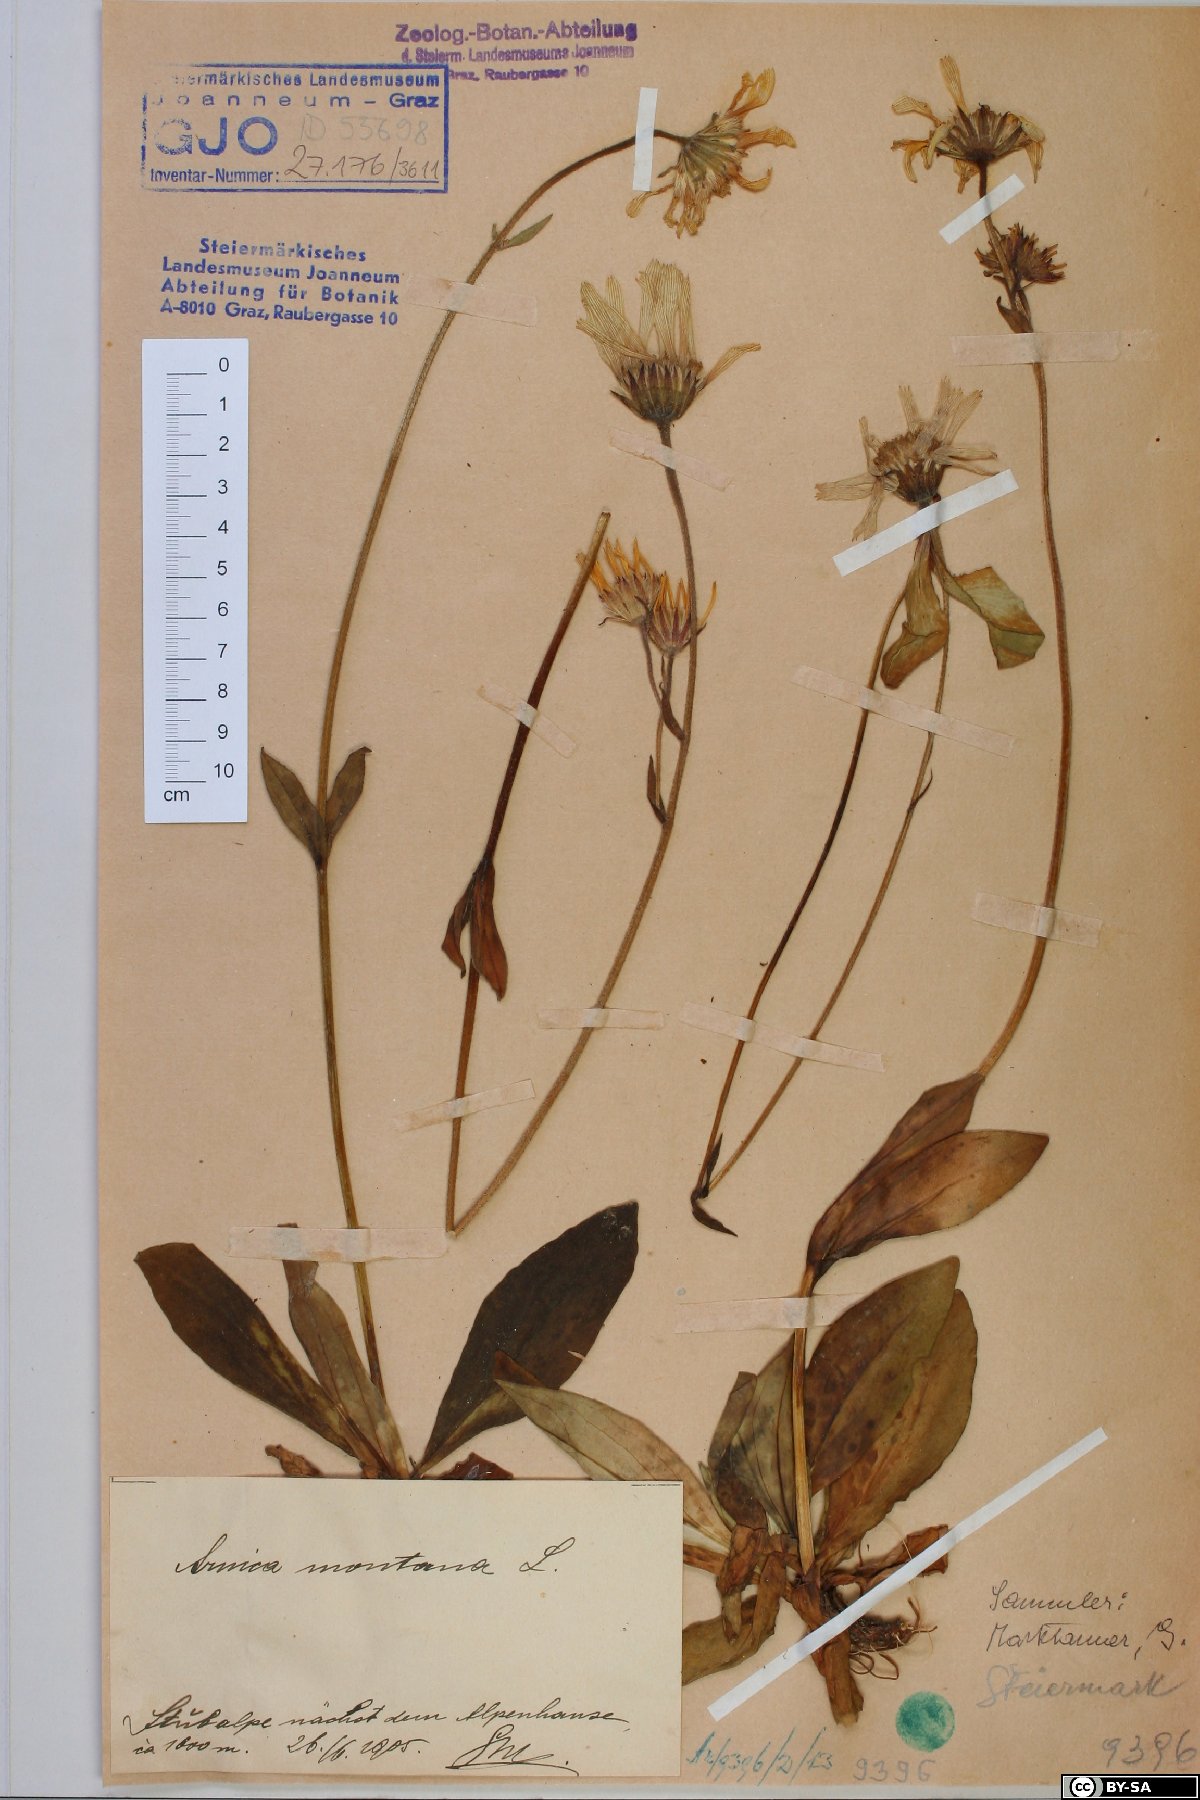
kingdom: Plantae
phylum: Tracheophyta
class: Magnoliopsida
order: Asterales
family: Asteraceae
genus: Arnica
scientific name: Arnica montana
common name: Leopard's bane
